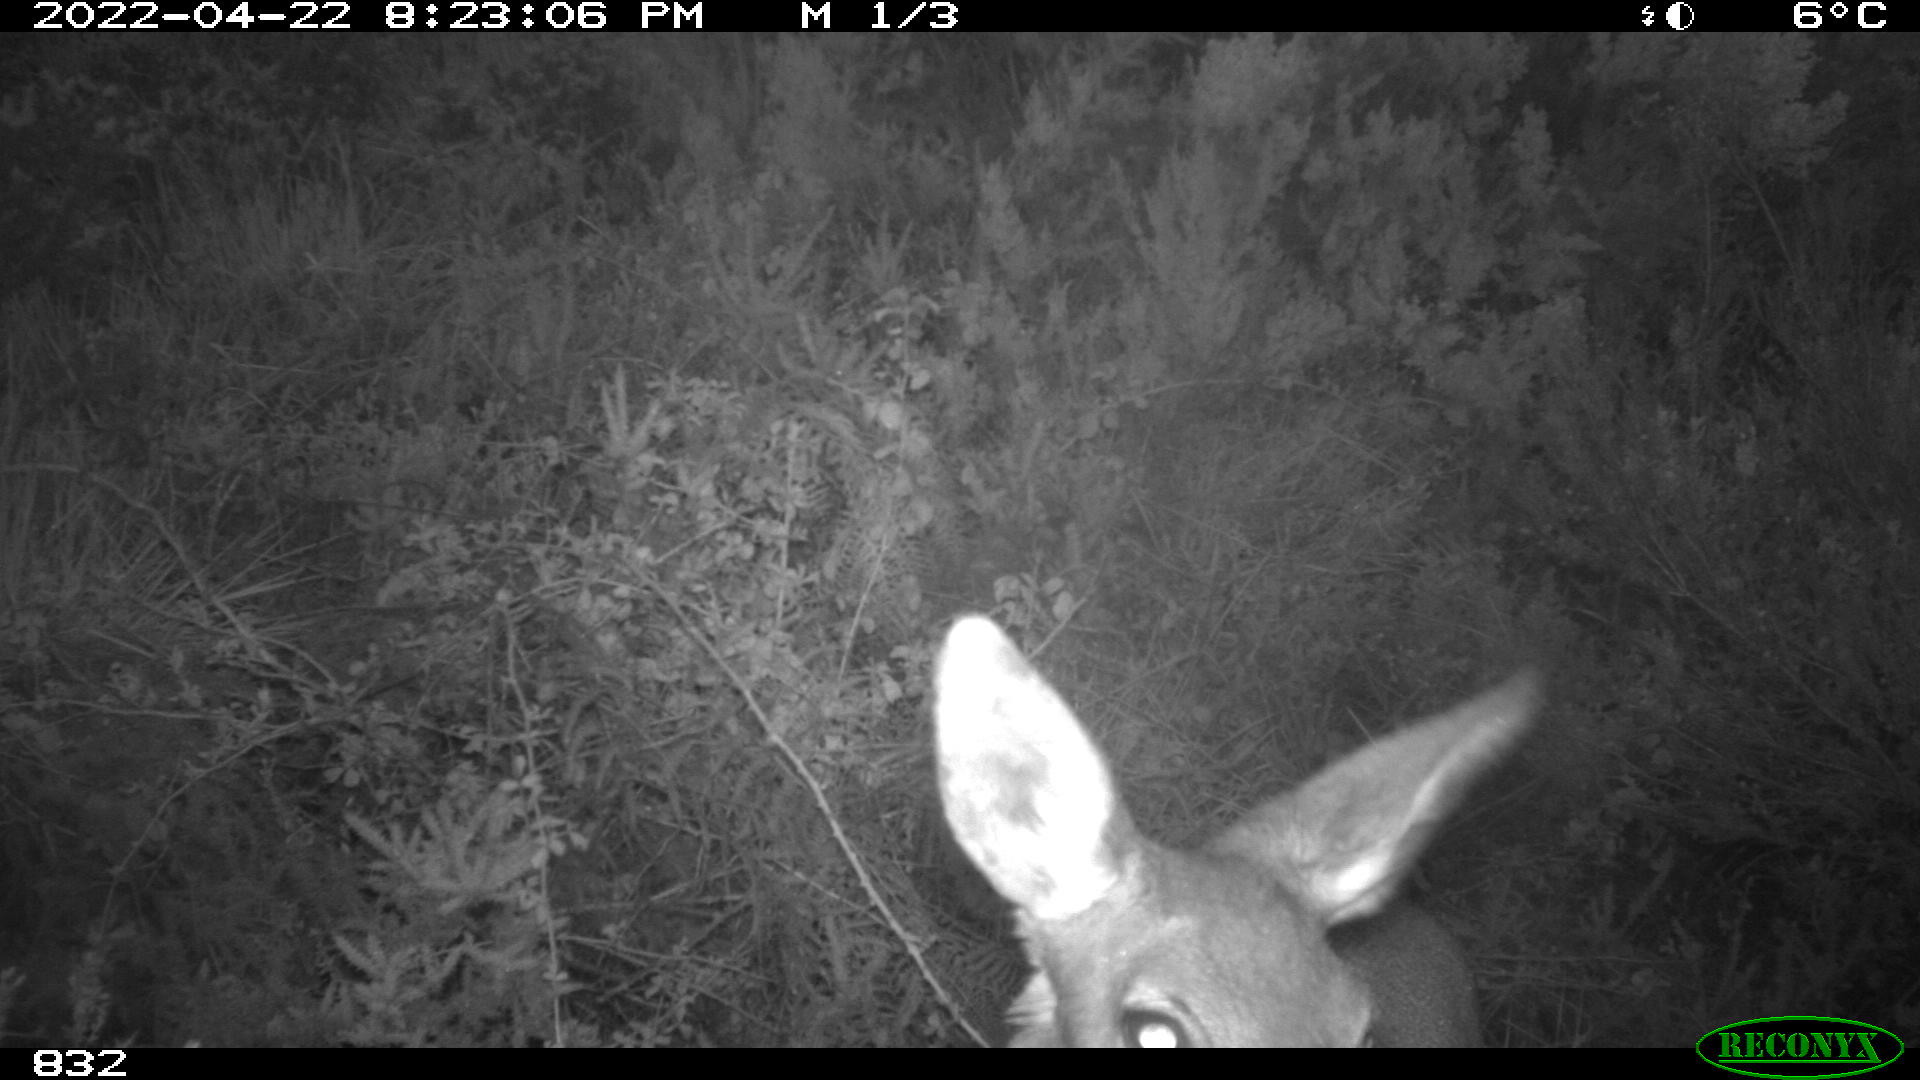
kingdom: Animalia
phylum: Chordata
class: Mammalia
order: Artiodactyla
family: Cervidae
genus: Capreolus
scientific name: Capreolus capreolus
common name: Western roe deer
